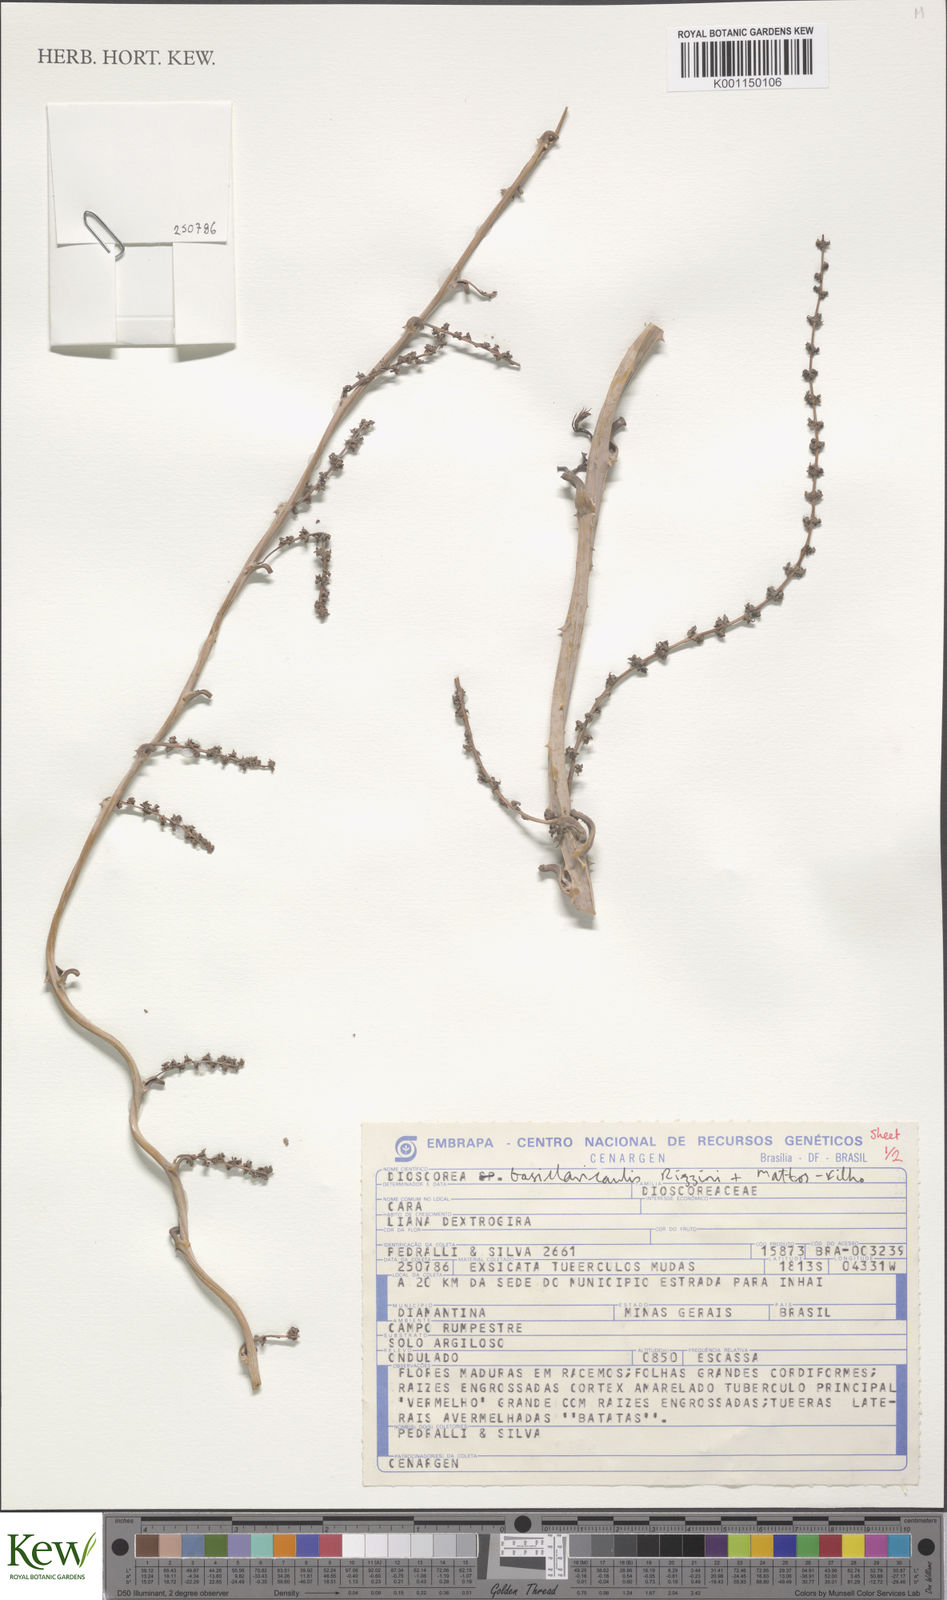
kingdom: Plantae
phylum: Tracheophyta
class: Liliopsida
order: Dioscoreales
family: Dioscoreaceae
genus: Dioscorea
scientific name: Dioscorea basiclavicaulis
